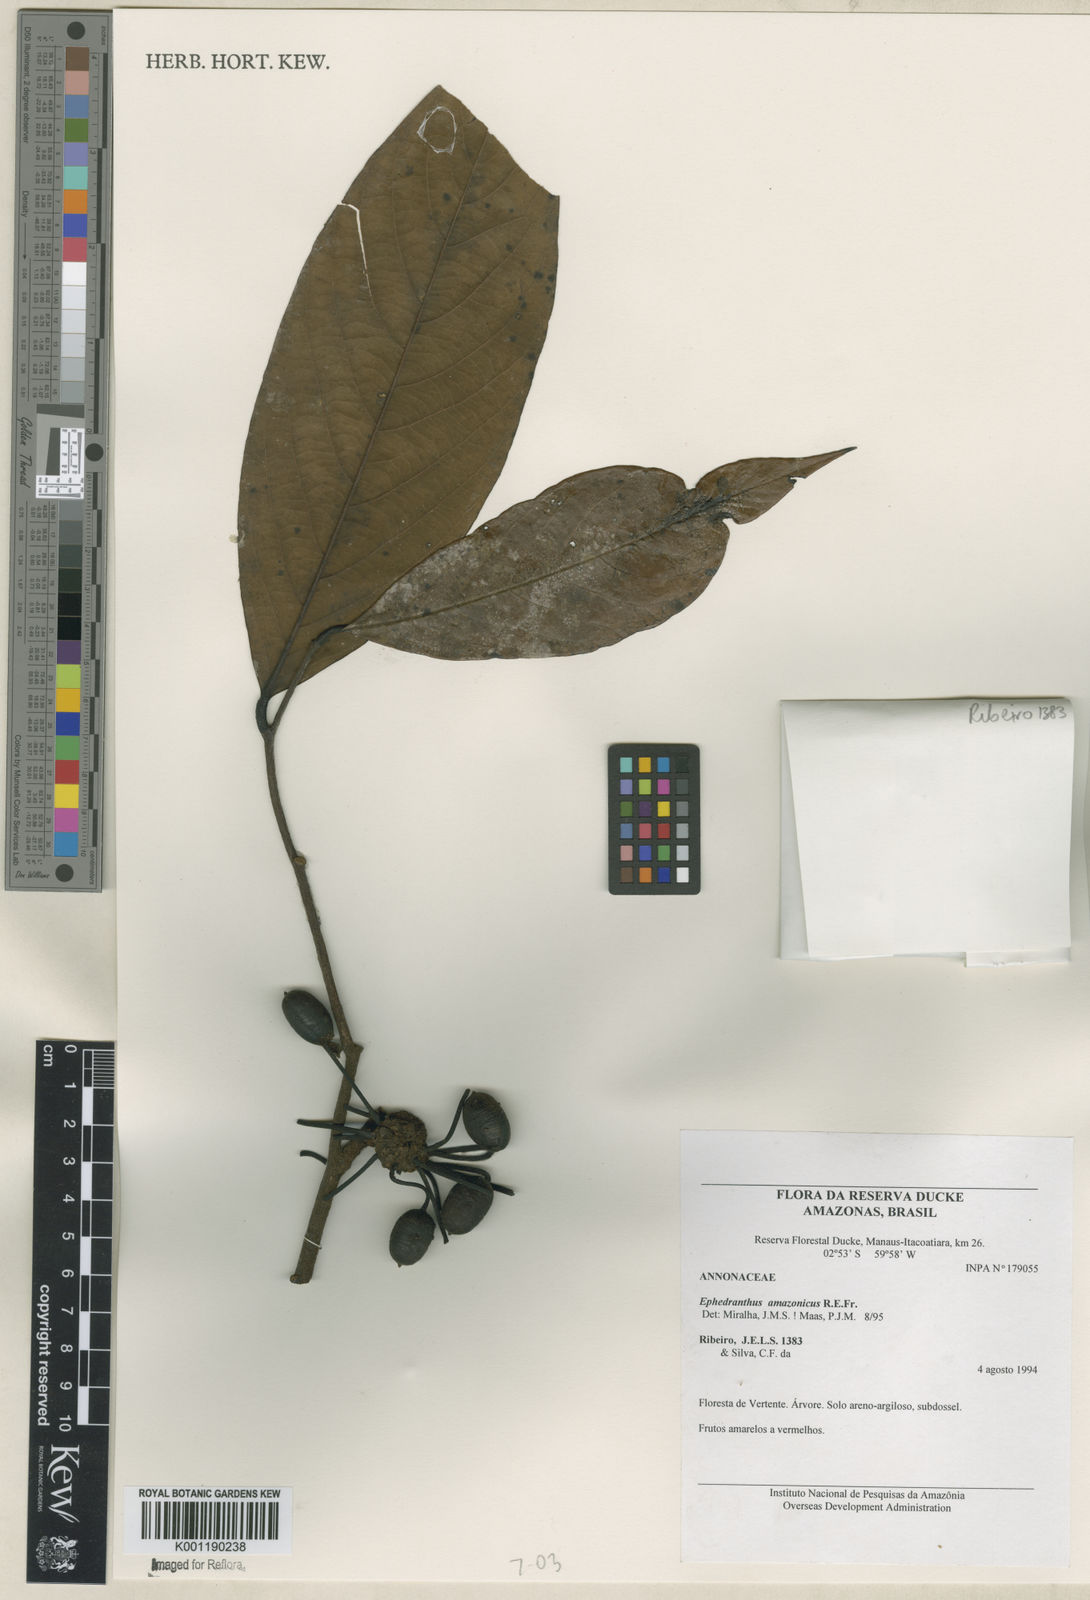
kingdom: Plantae
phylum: Tracheophyta
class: Magnoliopsida
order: Magnoliales
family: Annonaceae
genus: Ephedranthus
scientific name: Ephedranthus amazonicus
